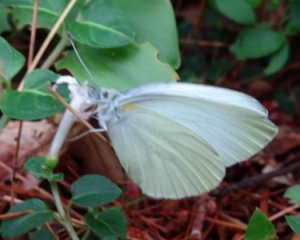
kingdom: Animalia
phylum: Arthropoda
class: Insecta
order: Lepidoptera
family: Pieridae
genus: Pieris
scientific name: Pieris oleracea
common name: Mustard White
